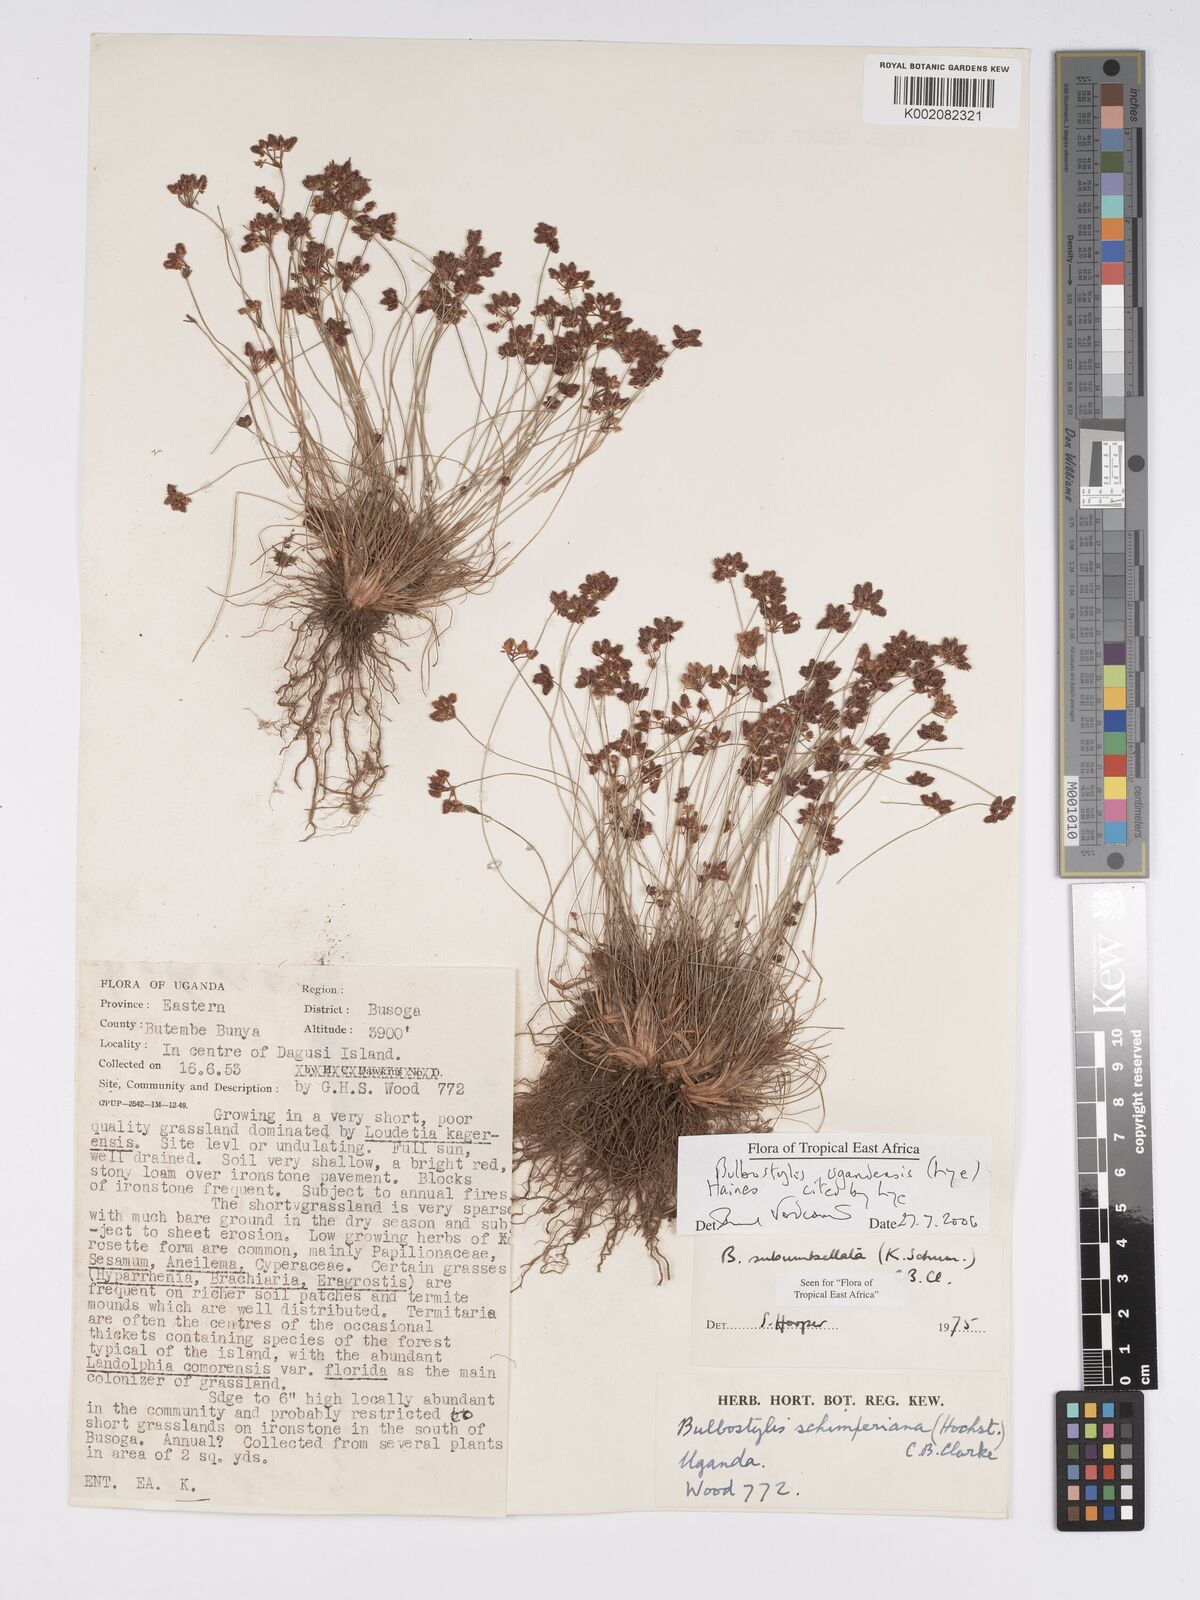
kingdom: Plantae
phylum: Tracheophyta
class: Liliopsida
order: Poales
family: Cyperaceae
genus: Bulbostylis
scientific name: Bulbostylis ugandensis
